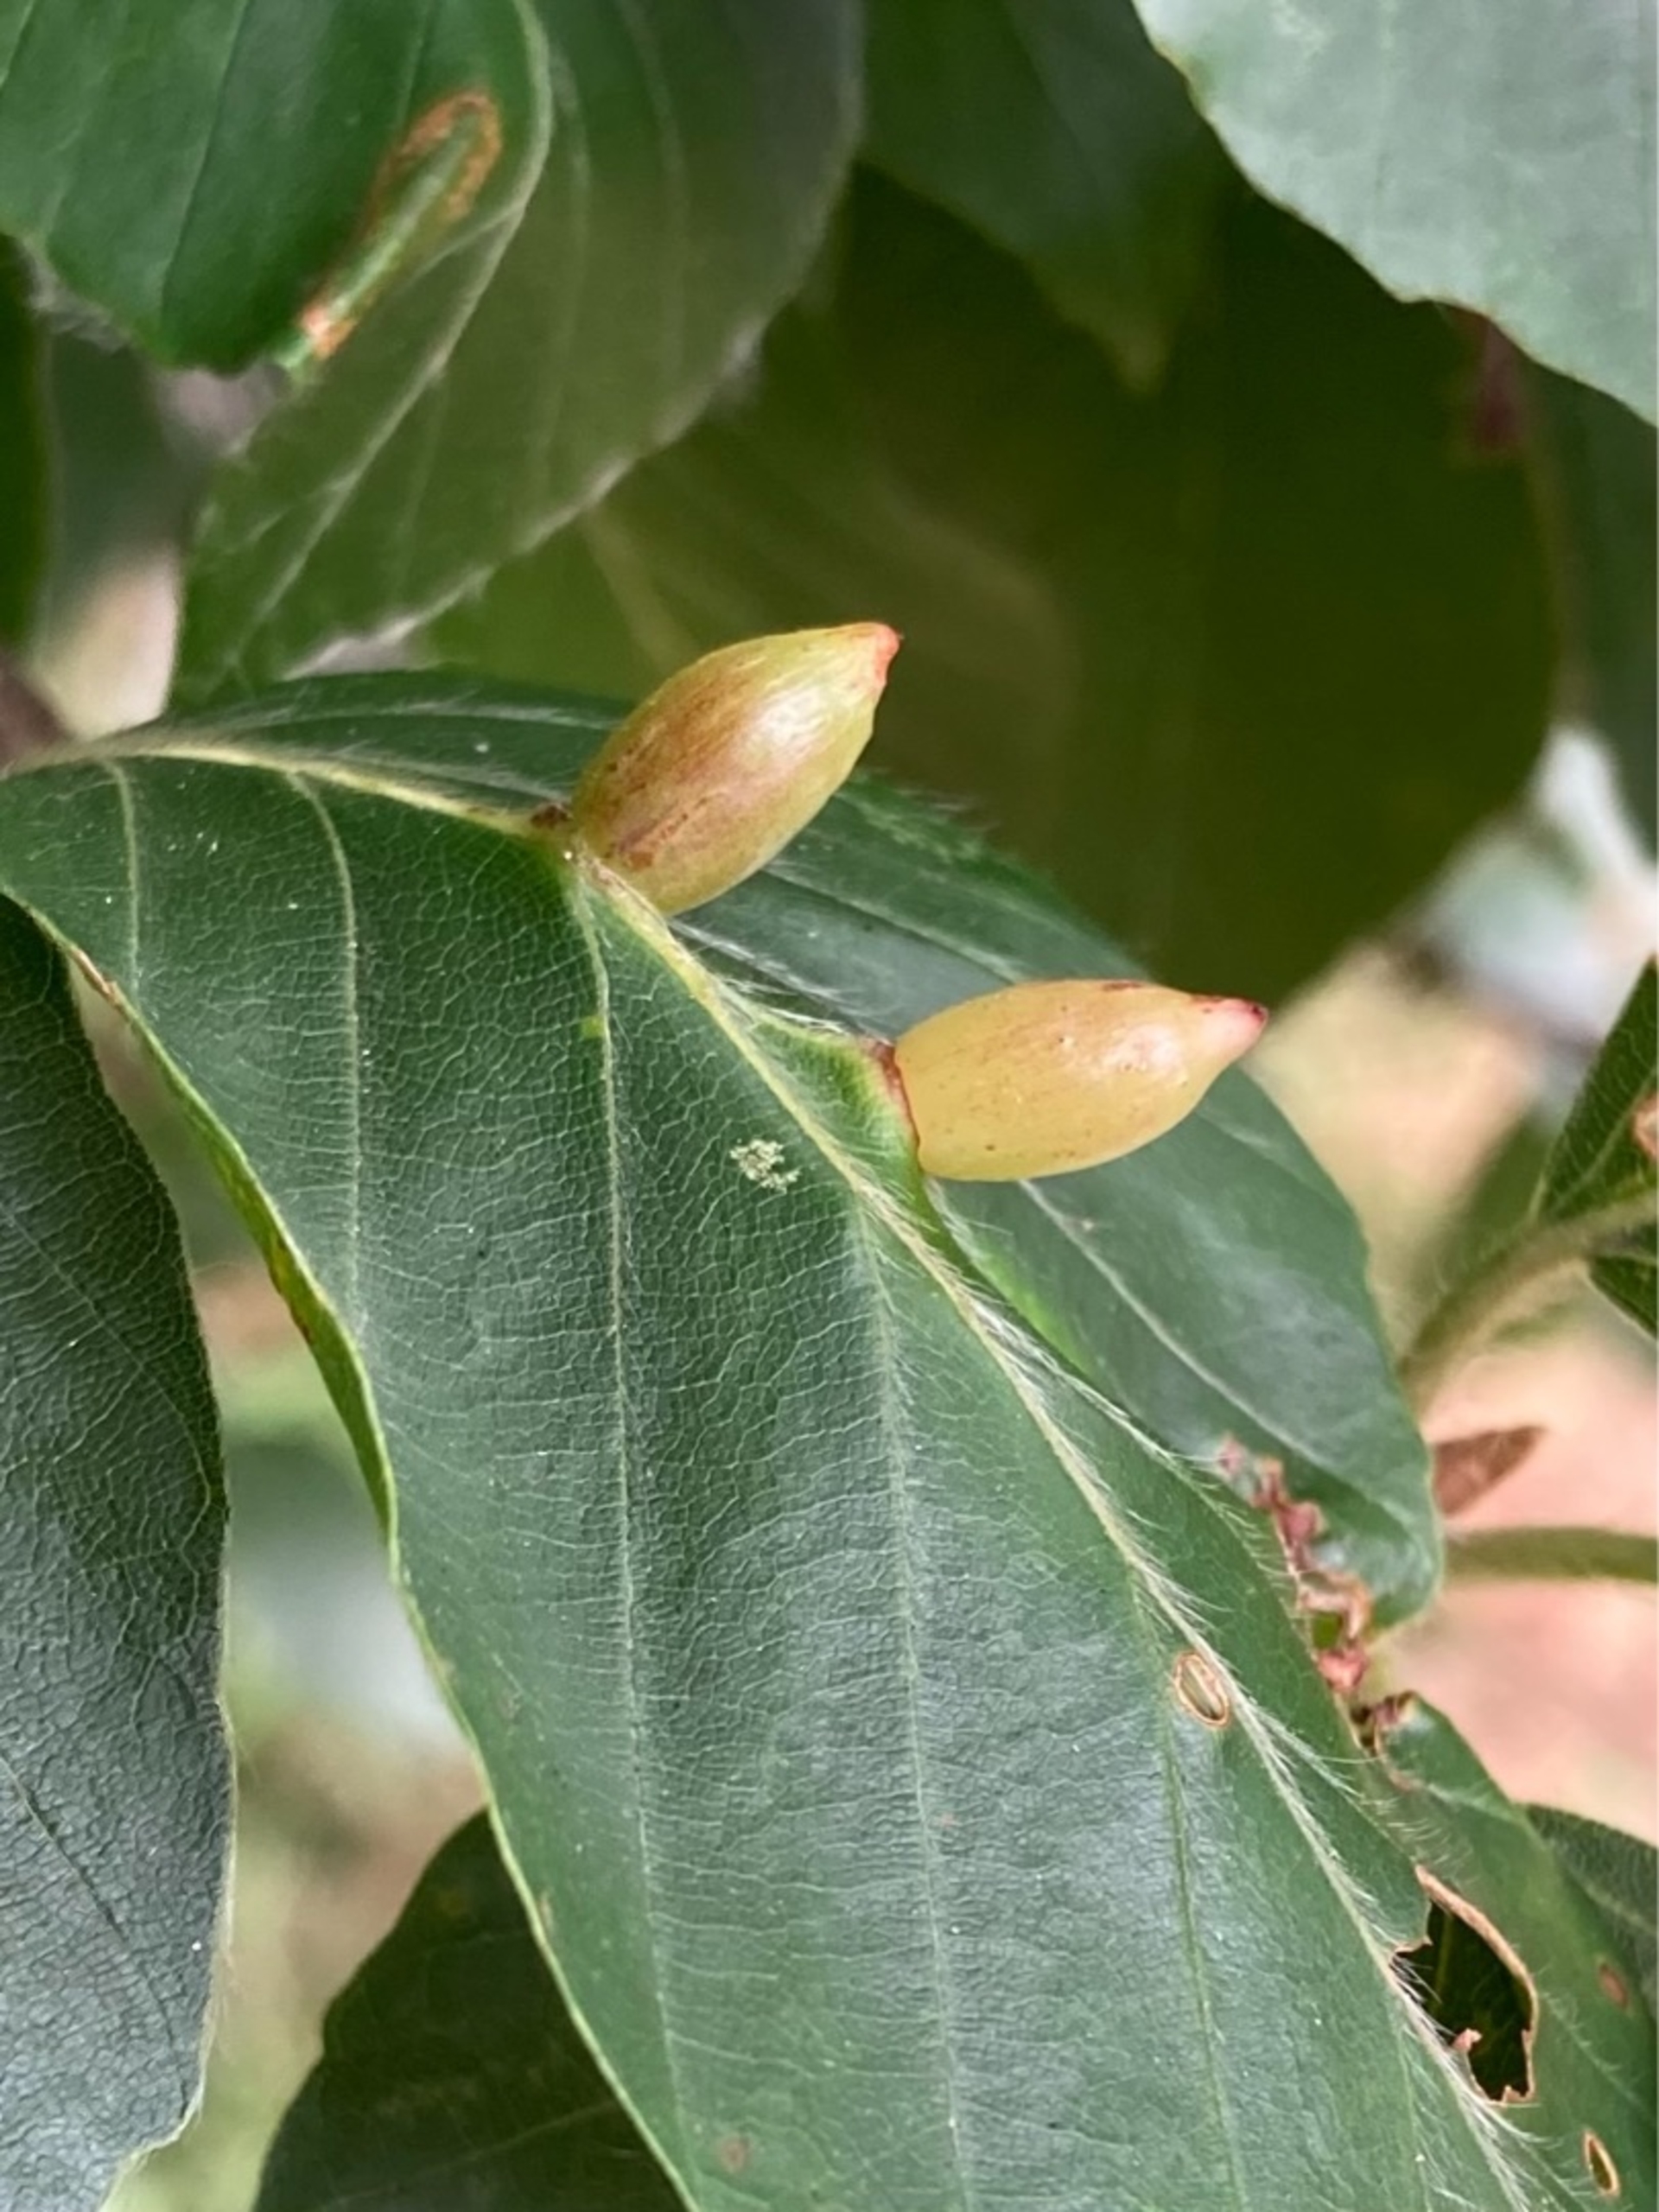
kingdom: Animalia
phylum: Arthropoda
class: Insecta
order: Diptera
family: Cecidomyiidae
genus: Mikiola
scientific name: Mikiola fagi
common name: Bøgegalmyg
